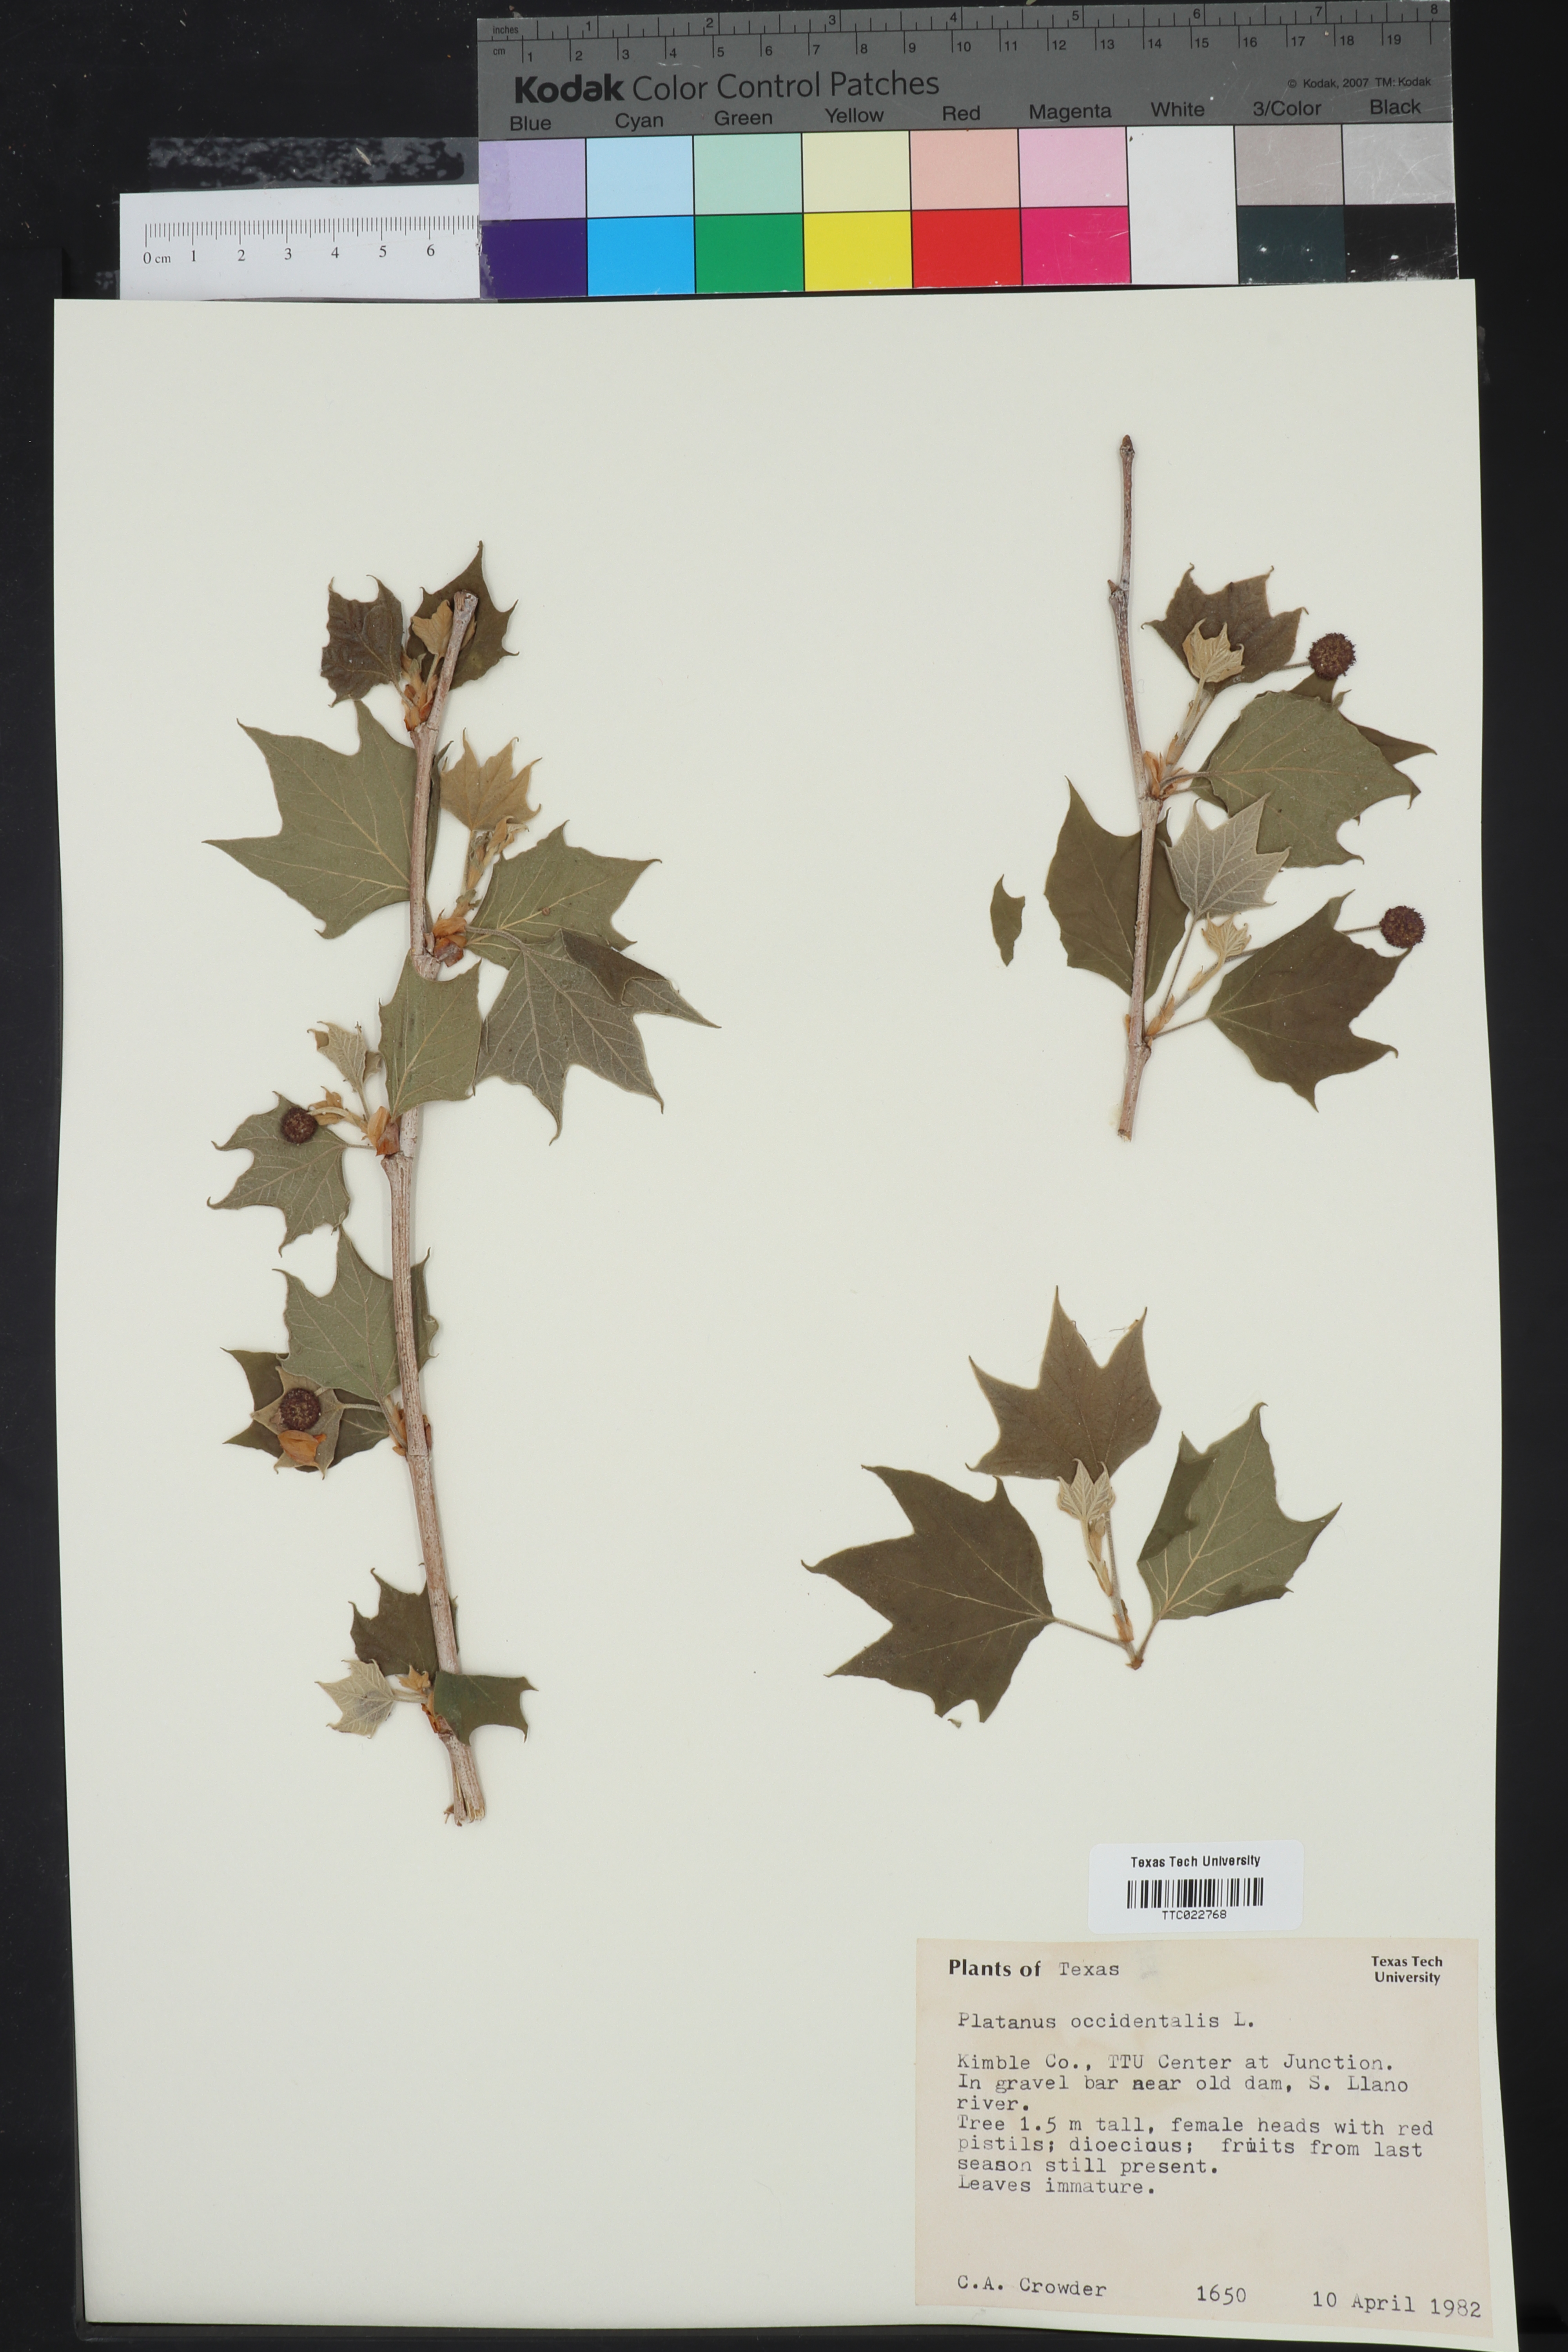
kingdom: Plantae
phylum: Tracheophyta
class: Magnoliopsida
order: Proteales
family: Platanaceae
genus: Platanus
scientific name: Platanus occidentalis
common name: American sycamore
